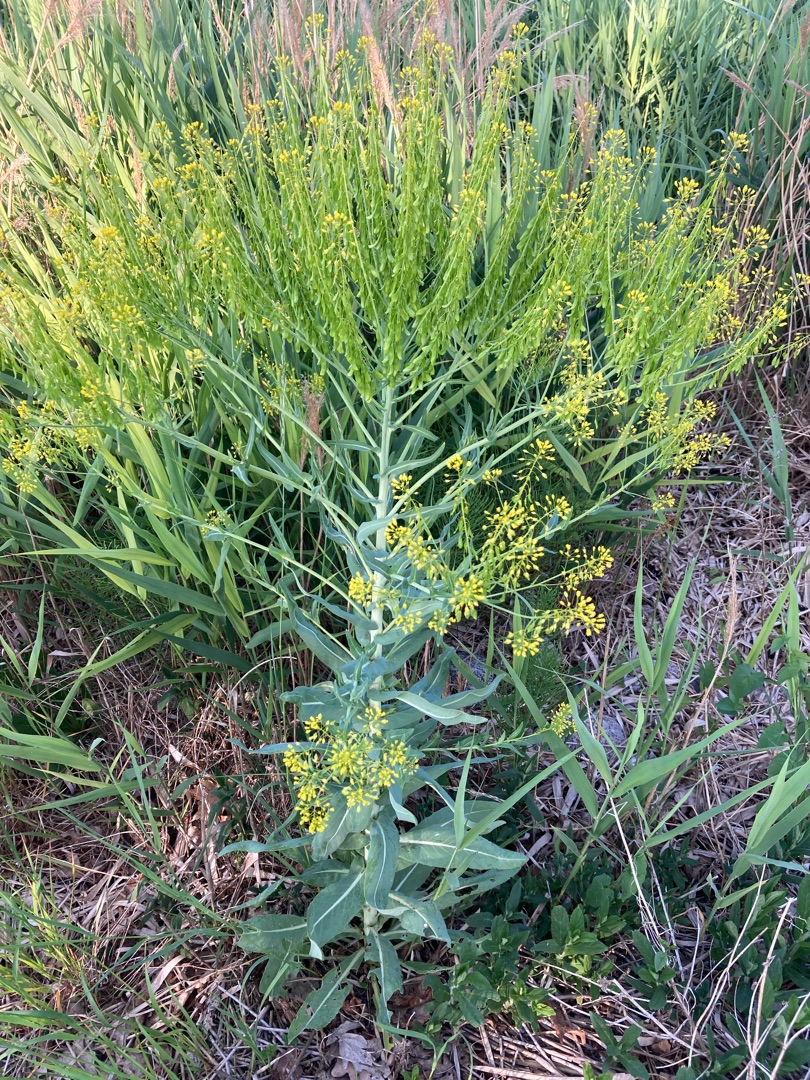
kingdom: Plantae
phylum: Tracheophyta
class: Magnoliopsida
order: Brassicales
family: Brassicaceae
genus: Isatis
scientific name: Isatis tinctoria
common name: Farve-vajd
